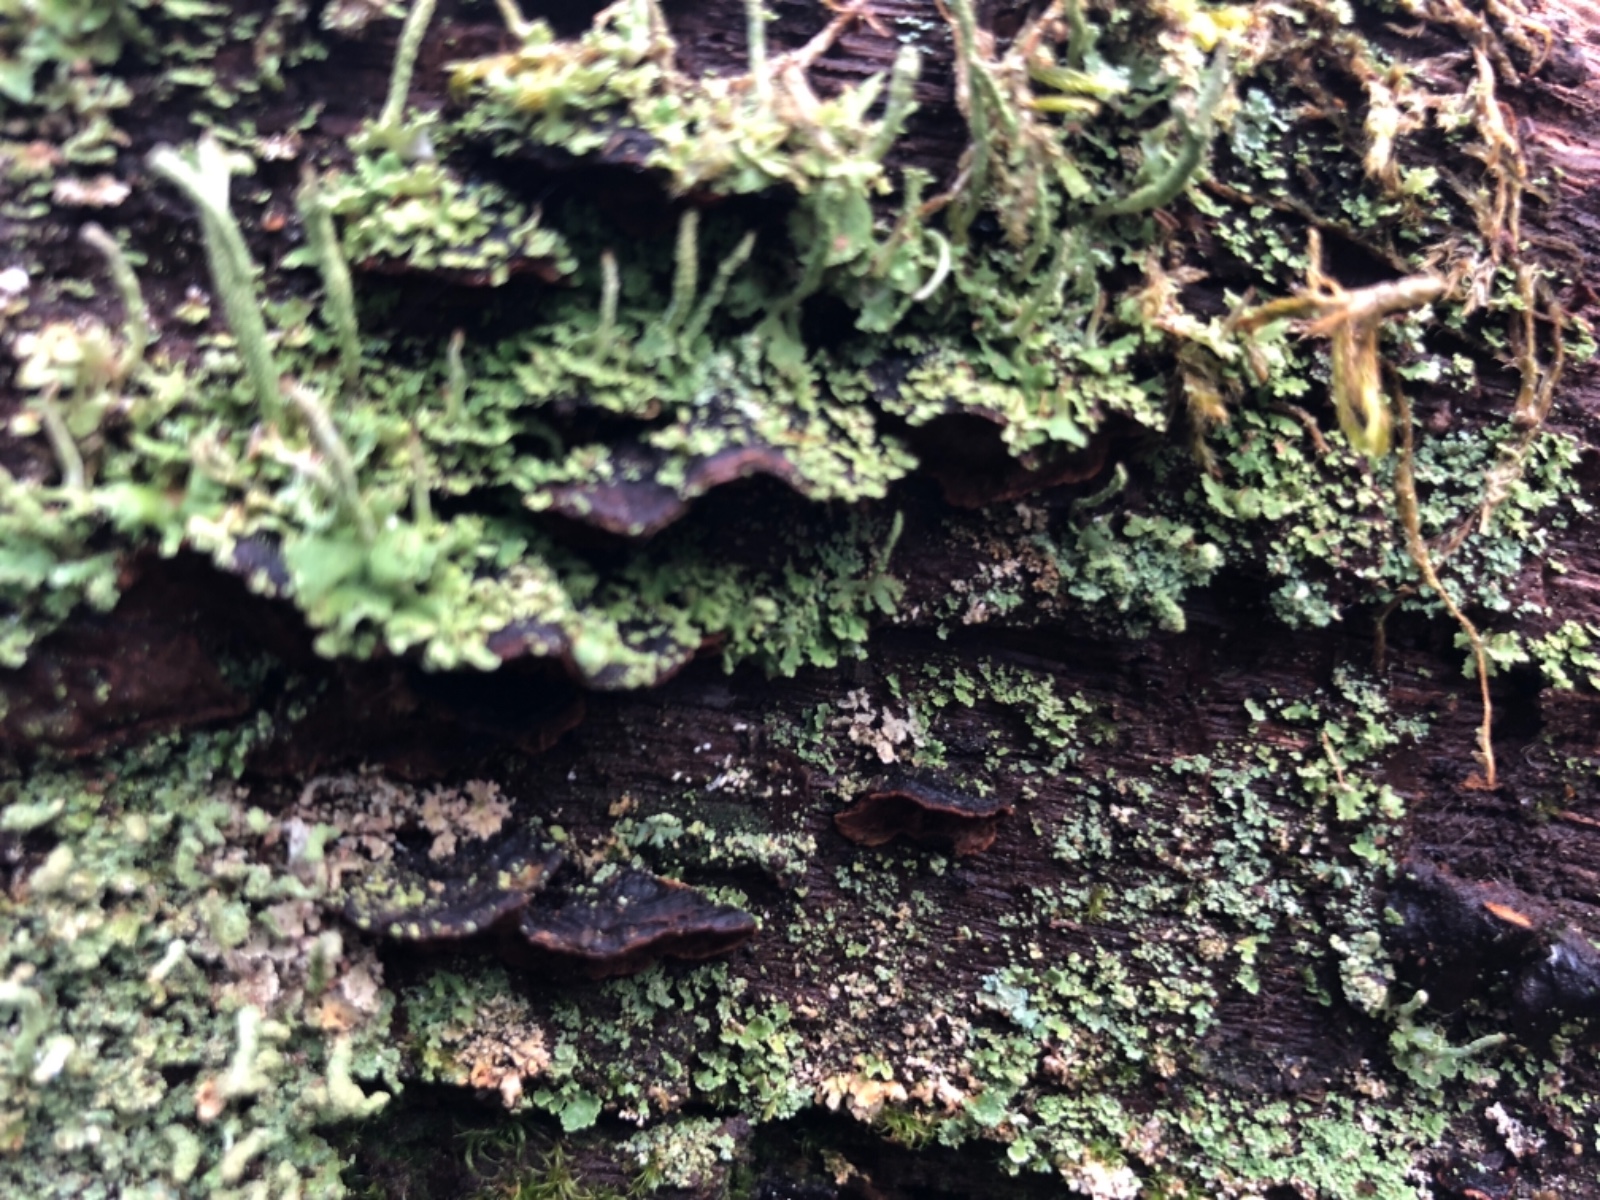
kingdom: Fungi
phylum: Basidiomycota
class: Agaricomycetes
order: Hymenochaetales
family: Hymenochaetaceae
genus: Hymenochaete
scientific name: Hymenochaete rubiginosa
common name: stiv ruslædersvamp
